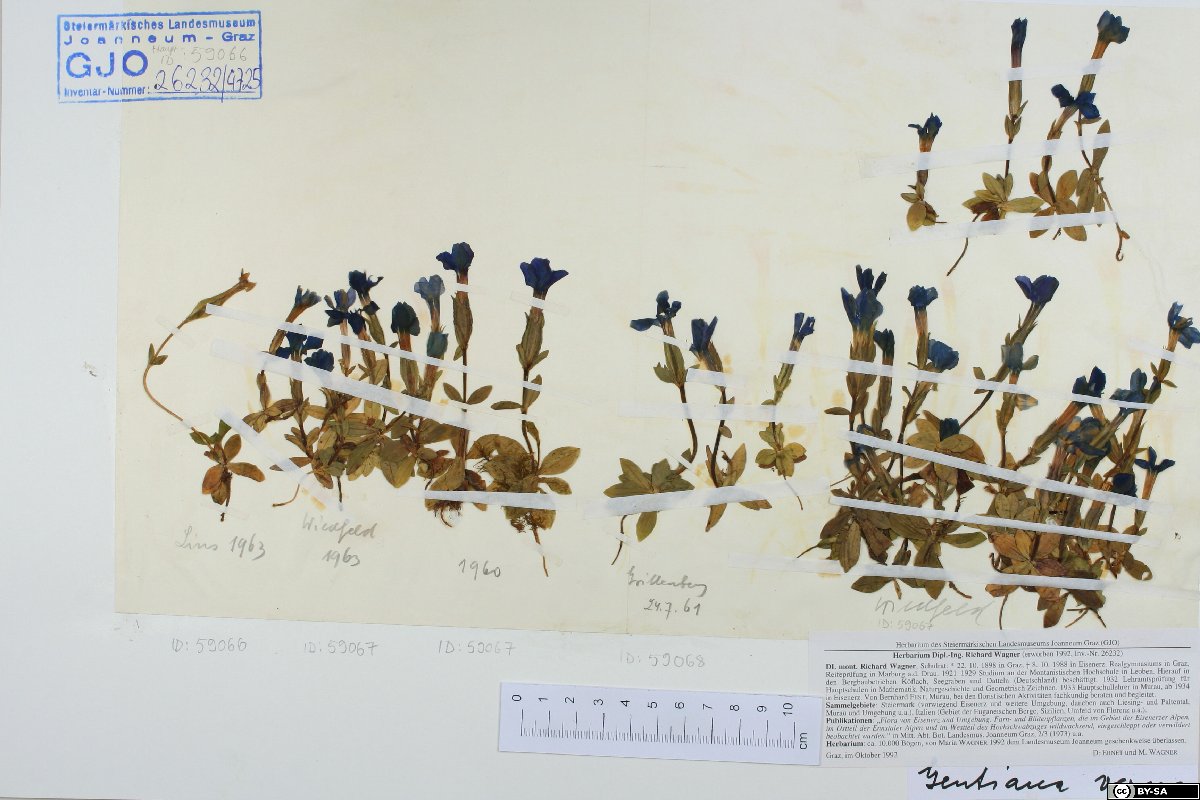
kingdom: Plantae
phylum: Tracheophyta
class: Magnoliopsida
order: Gentianales
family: Gentianaceae
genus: Gentiana
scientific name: Gentiana verna
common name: Spring gentian
